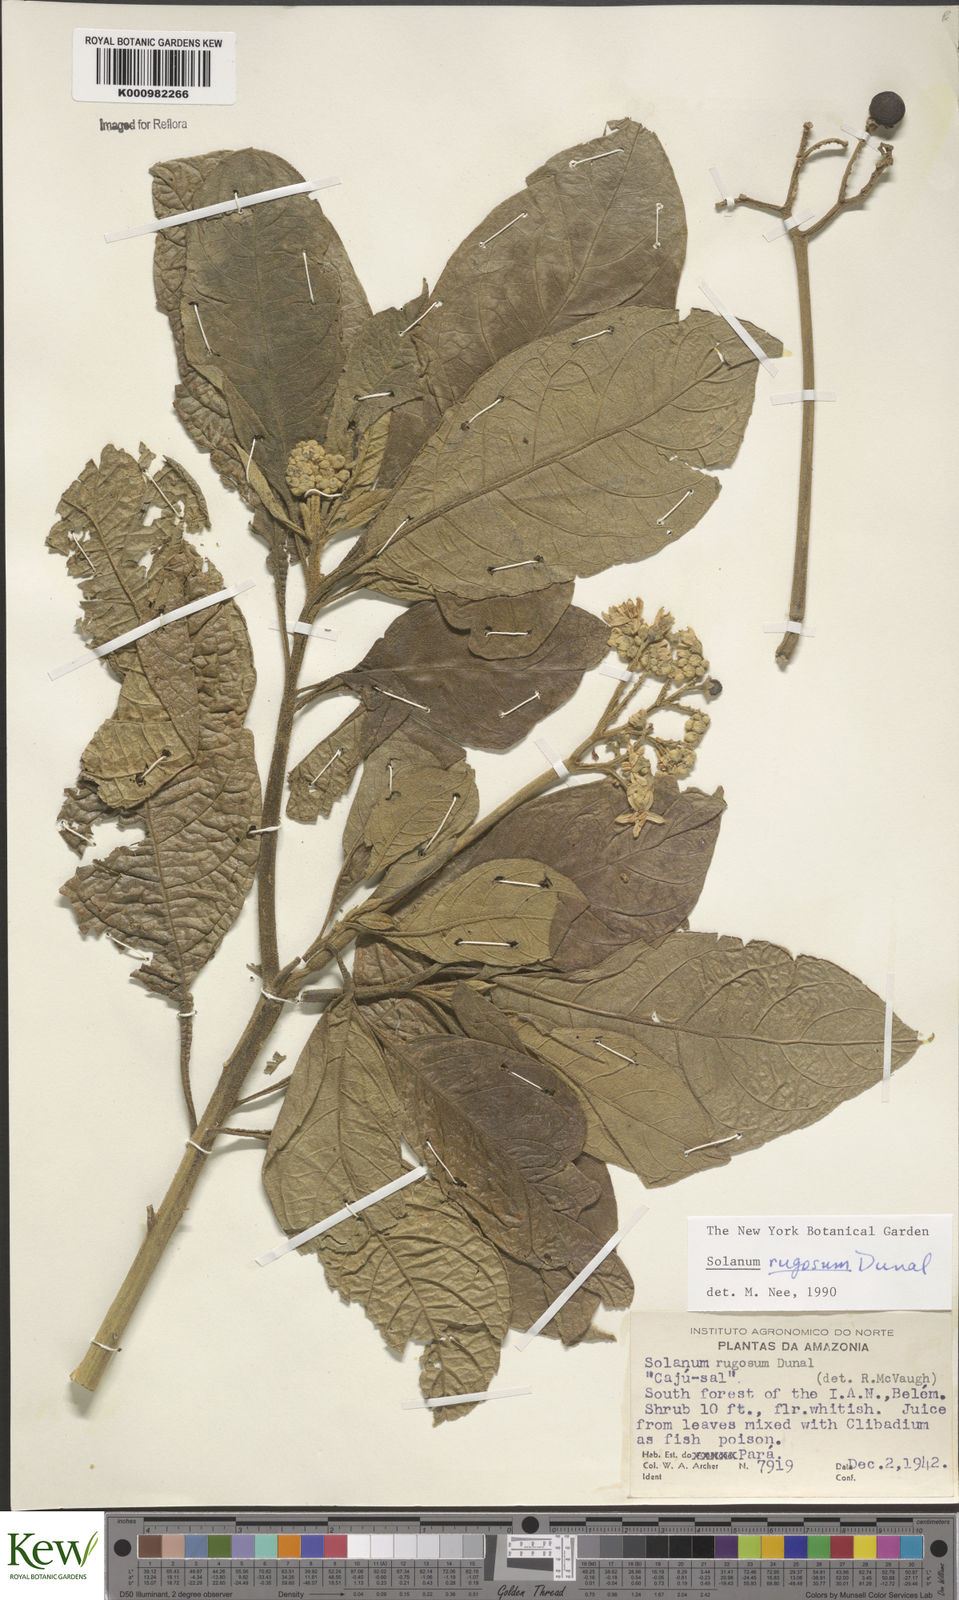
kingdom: Plantae
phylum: Tracheophyta
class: Magnoliopsida
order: Solanales
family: Solanaceae
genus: Solanum
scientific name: Solanum rugosum
